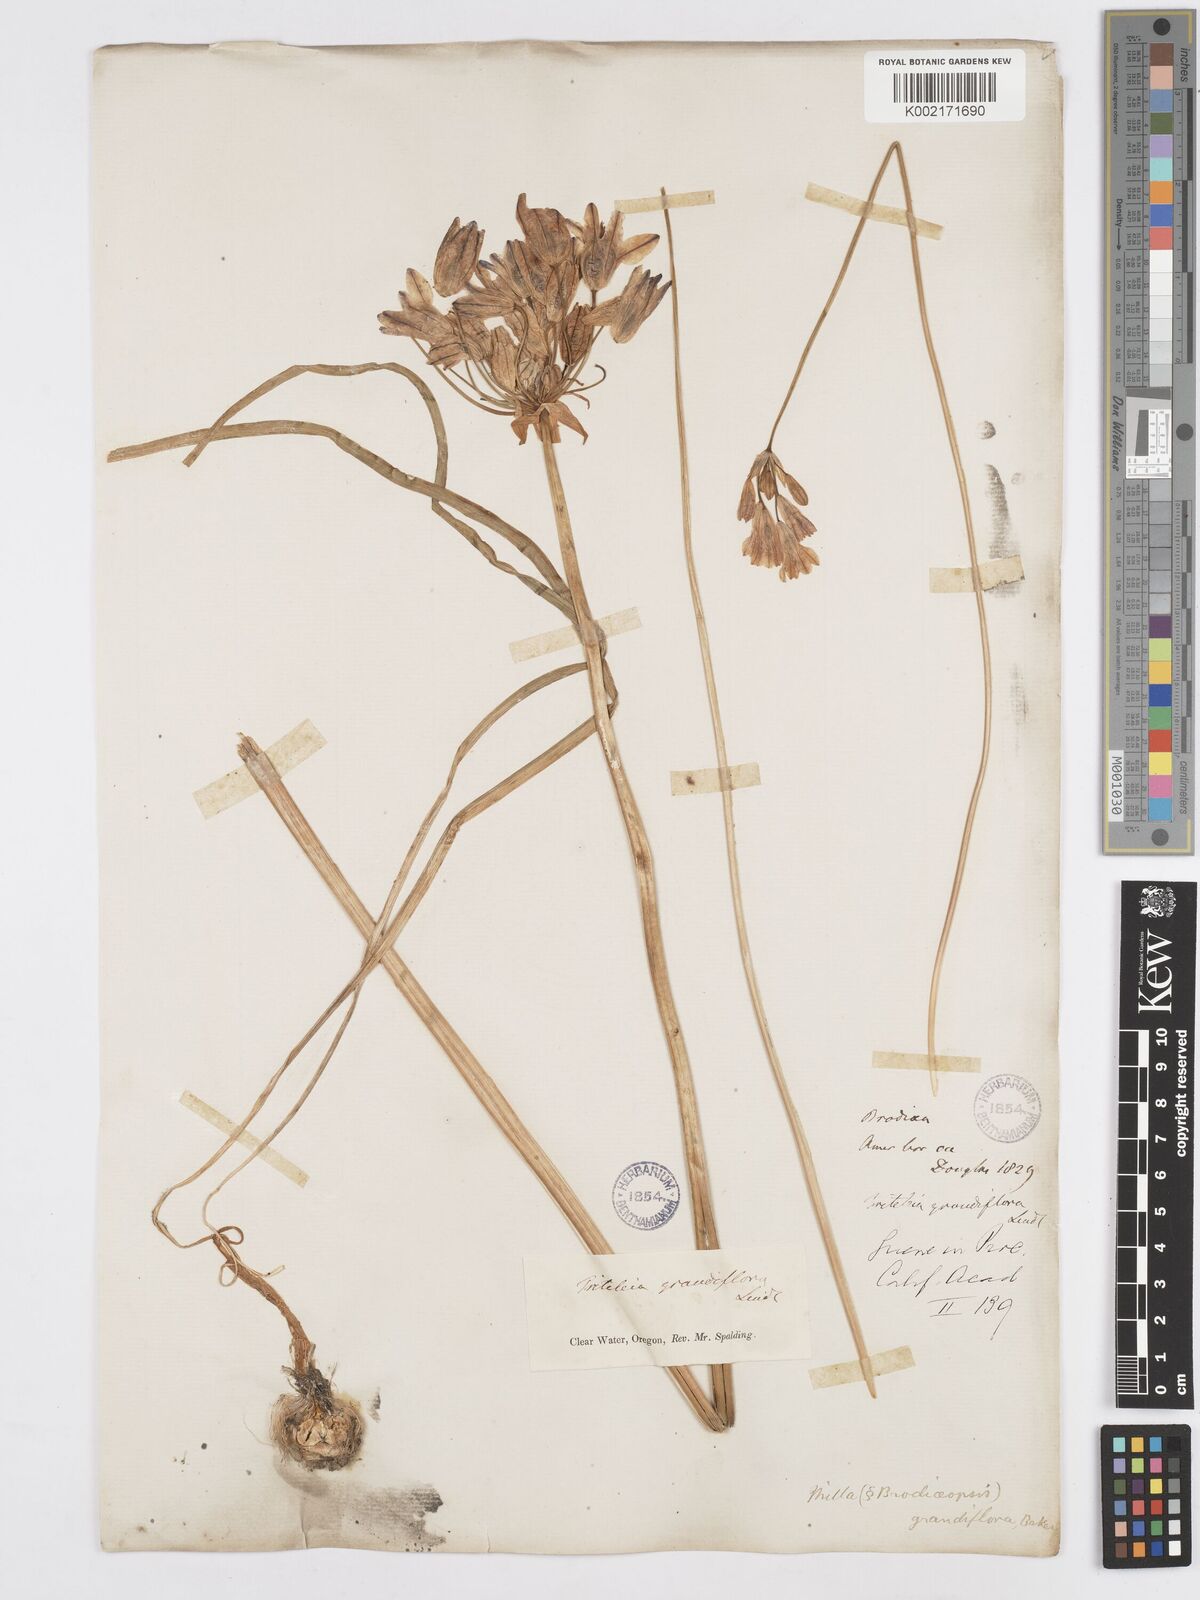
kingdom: Plantae
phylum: Tracheophyta
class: Liliopsida
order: Asparagales
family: Asparagaceae
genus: Triteleia
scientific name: Triteleia grandiflora
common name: Wild hyacinth
